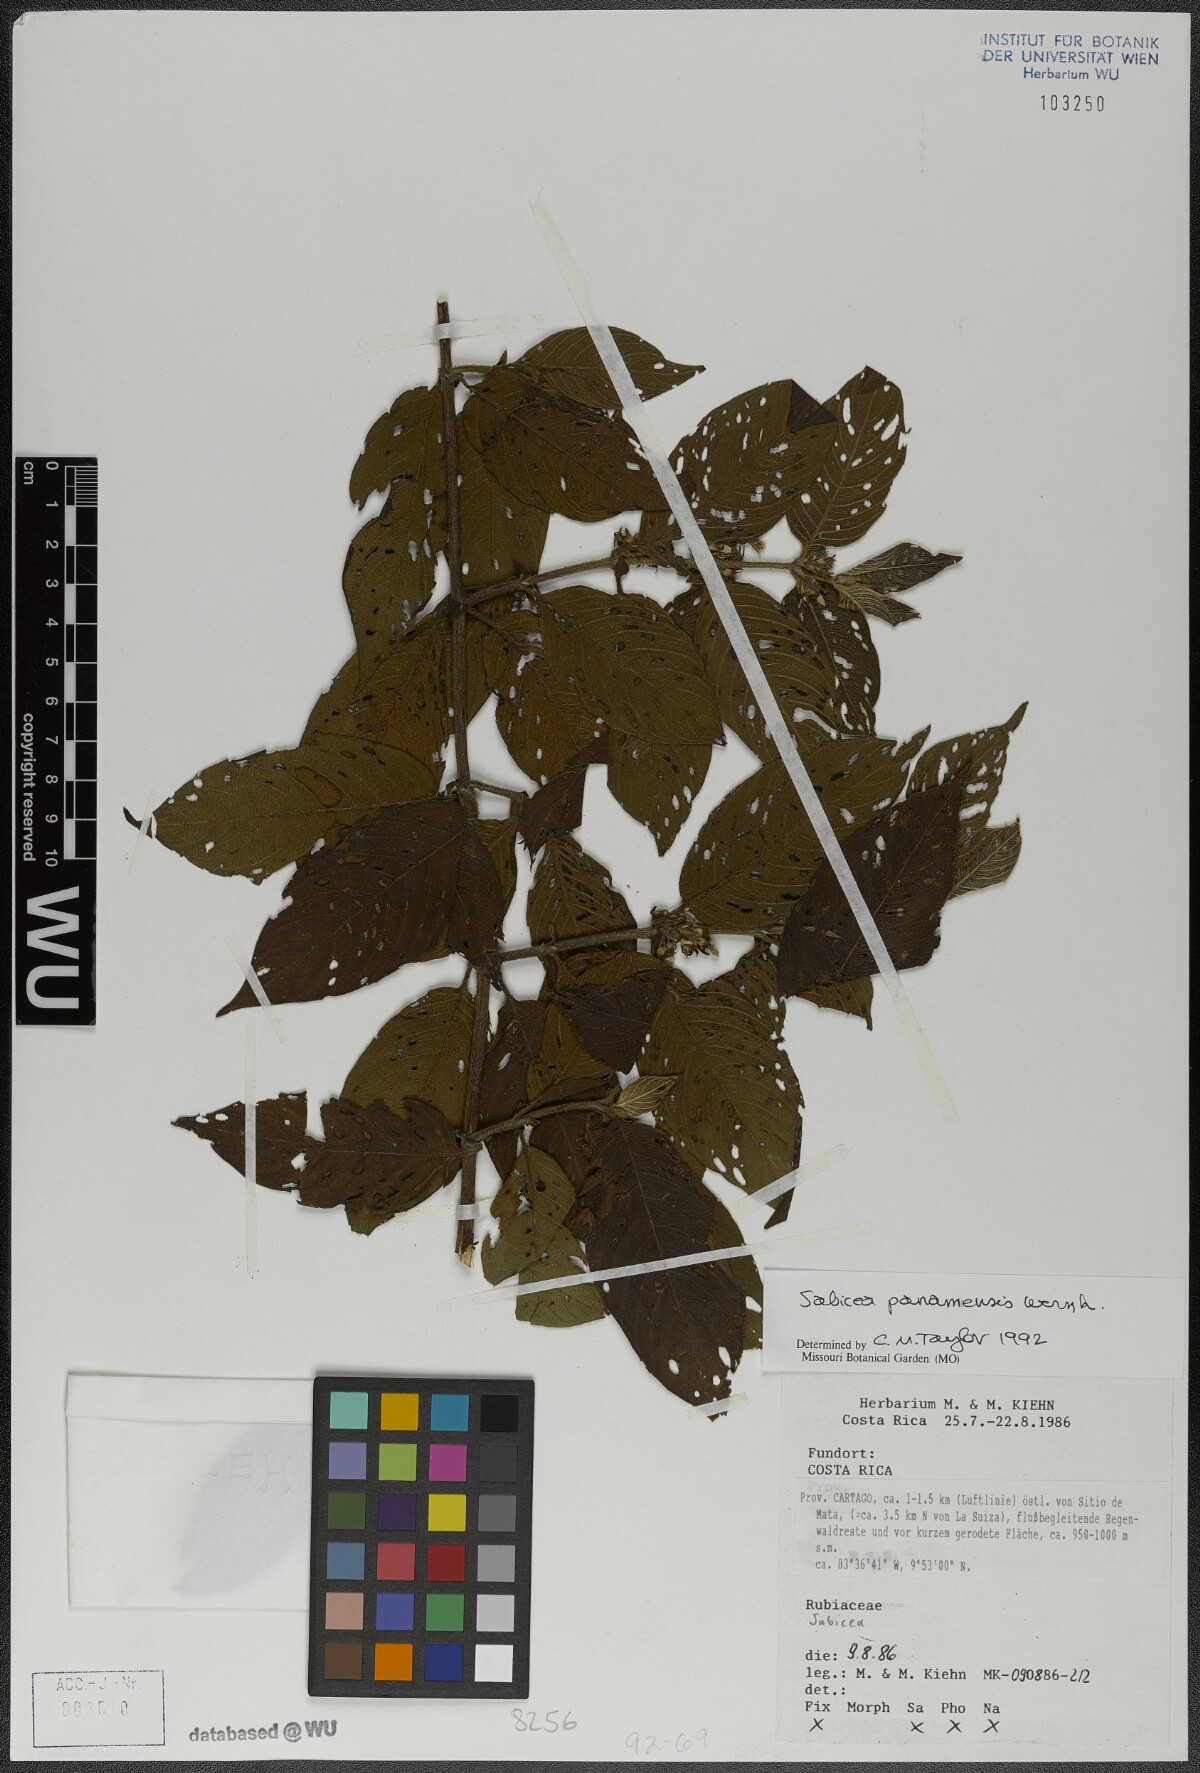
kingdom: Plantae
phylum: Tracheophyta
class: Magnoliopsida
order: Gentianales
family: Rubiaceae
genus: Sabicea
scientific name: Sabicea panamensis
